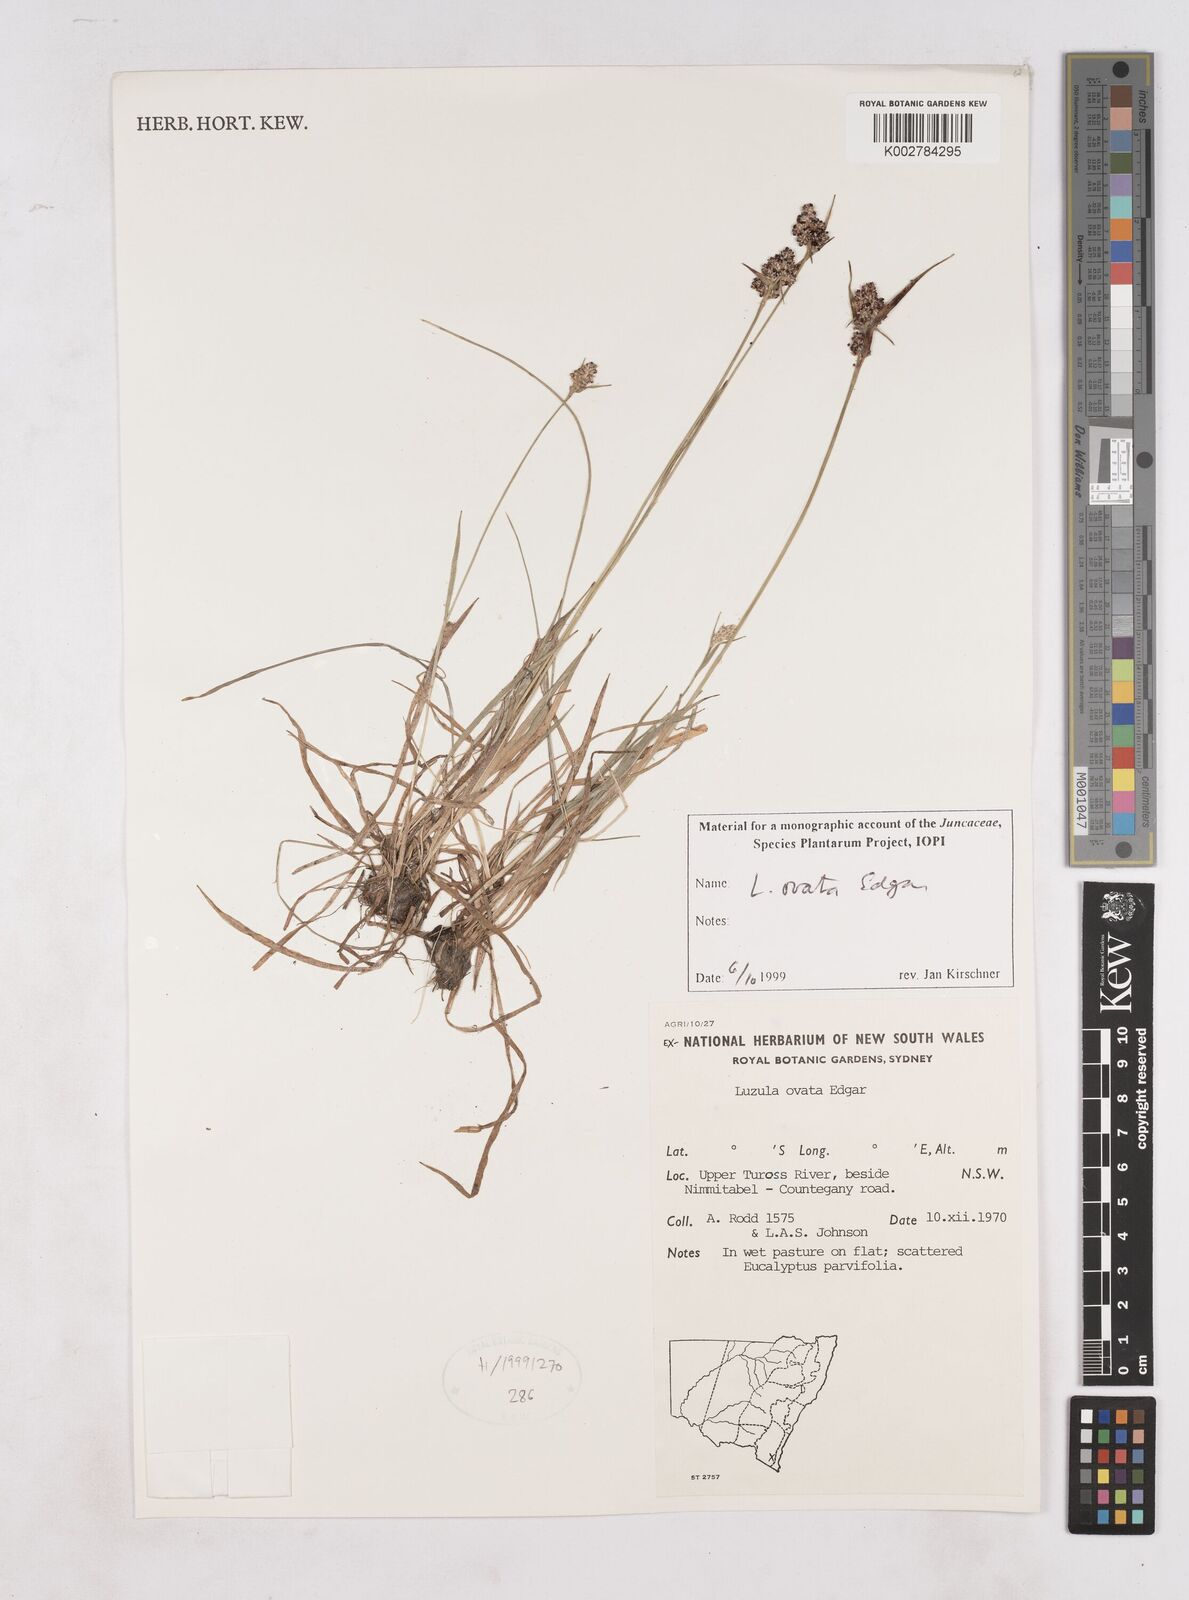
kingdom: Plantae
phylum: Tracheophyta
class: Liliopsida
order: Poales
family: Juncaceae
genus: Luzula
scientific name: Luzula ovata
